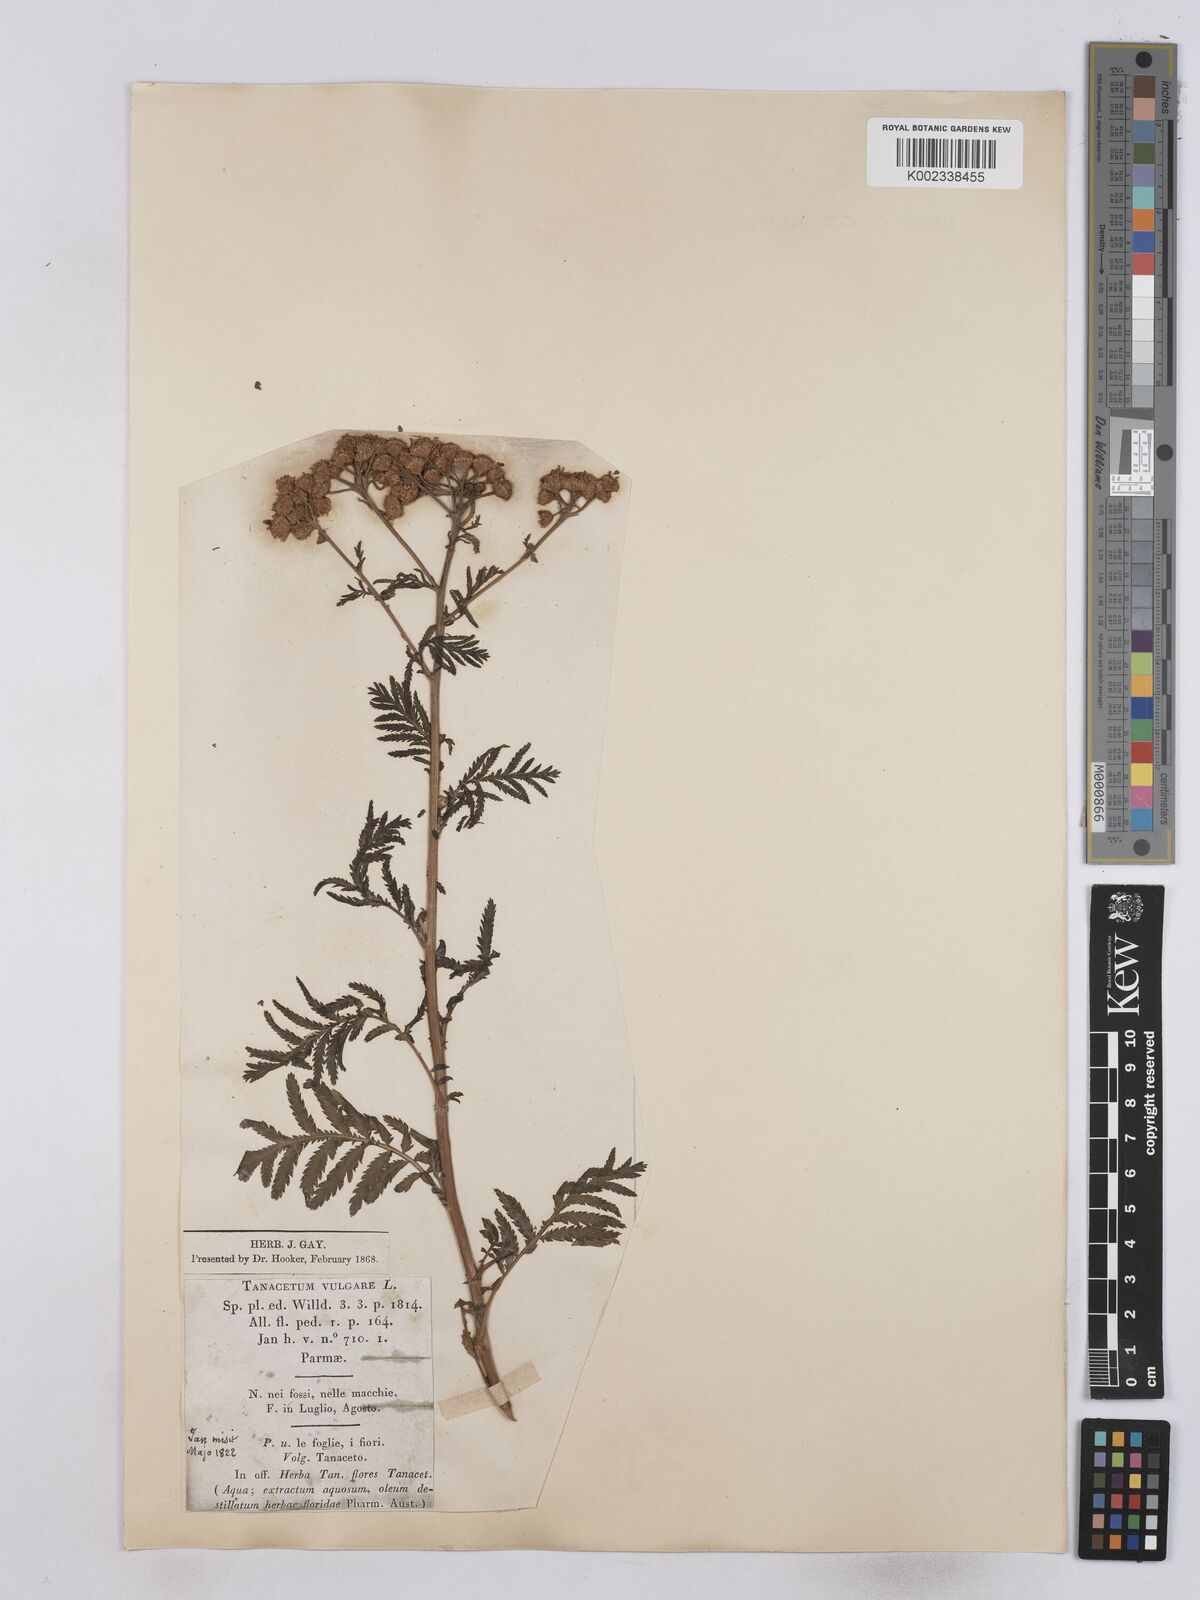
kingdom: Plantae
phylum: Tracheophyta
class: Magnoliopsida
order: Asterales
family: Asteraceae
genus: Tanacetum
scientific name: Tanacetum vulgare
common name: Common tansy
